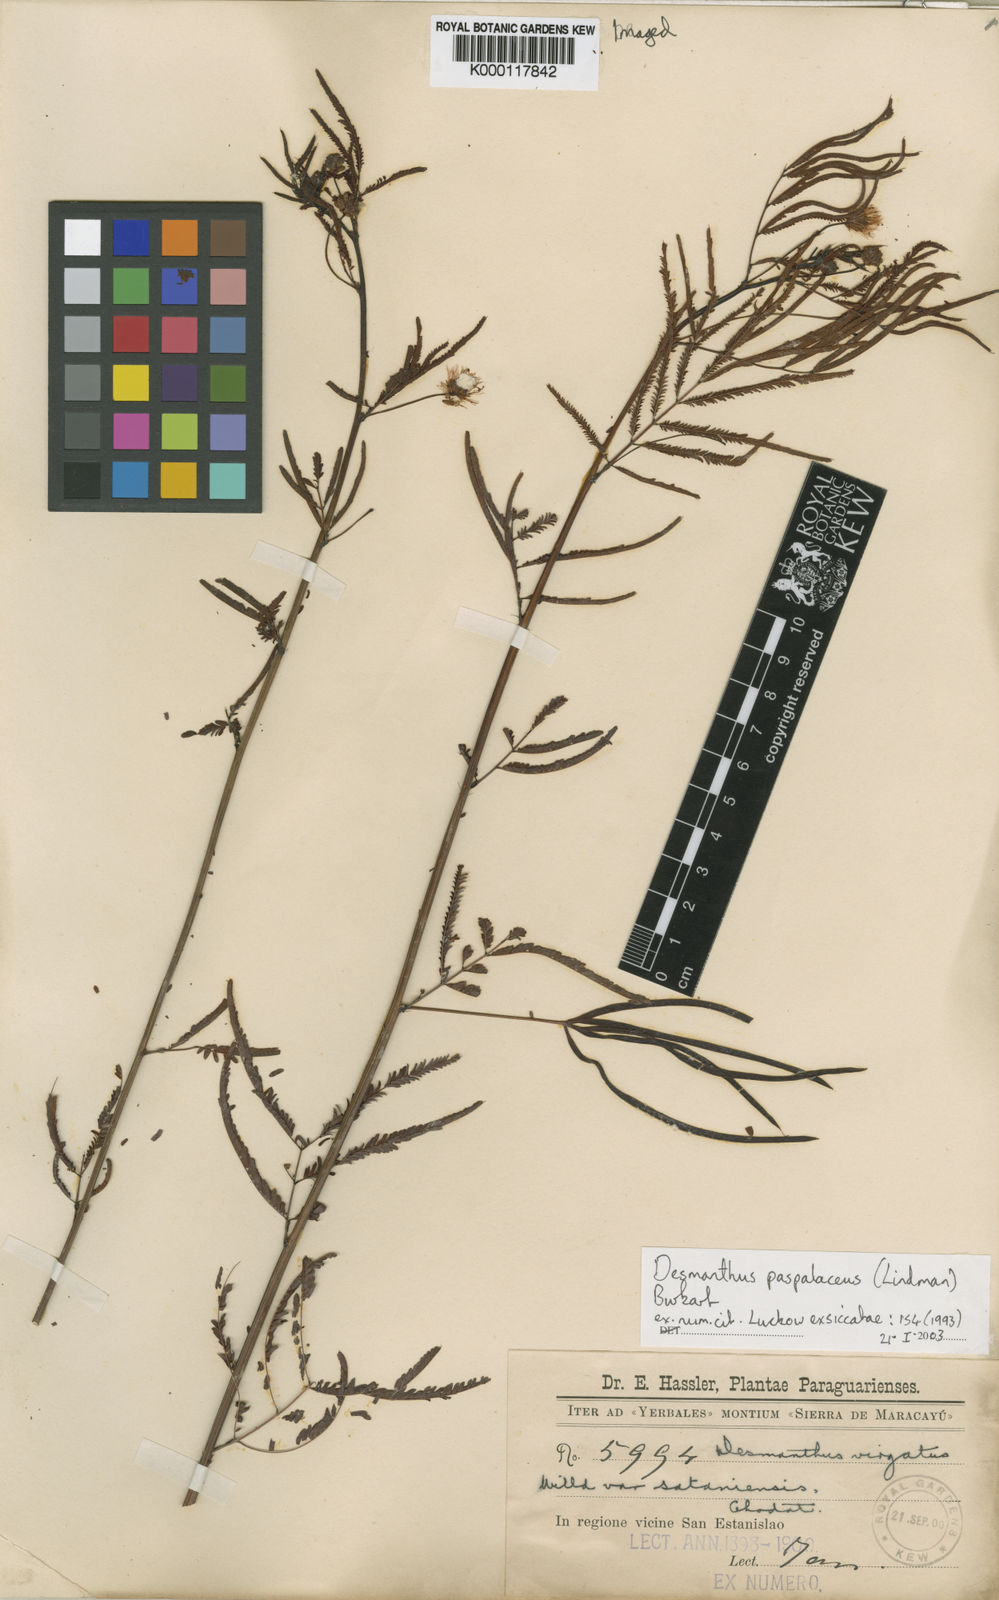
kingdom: Plantae
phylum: Tracheophyta
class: Magnoliopsida
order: Fabales
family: Fabaceae
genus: Desmanthus
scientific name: Desmanthus paspalaceus
